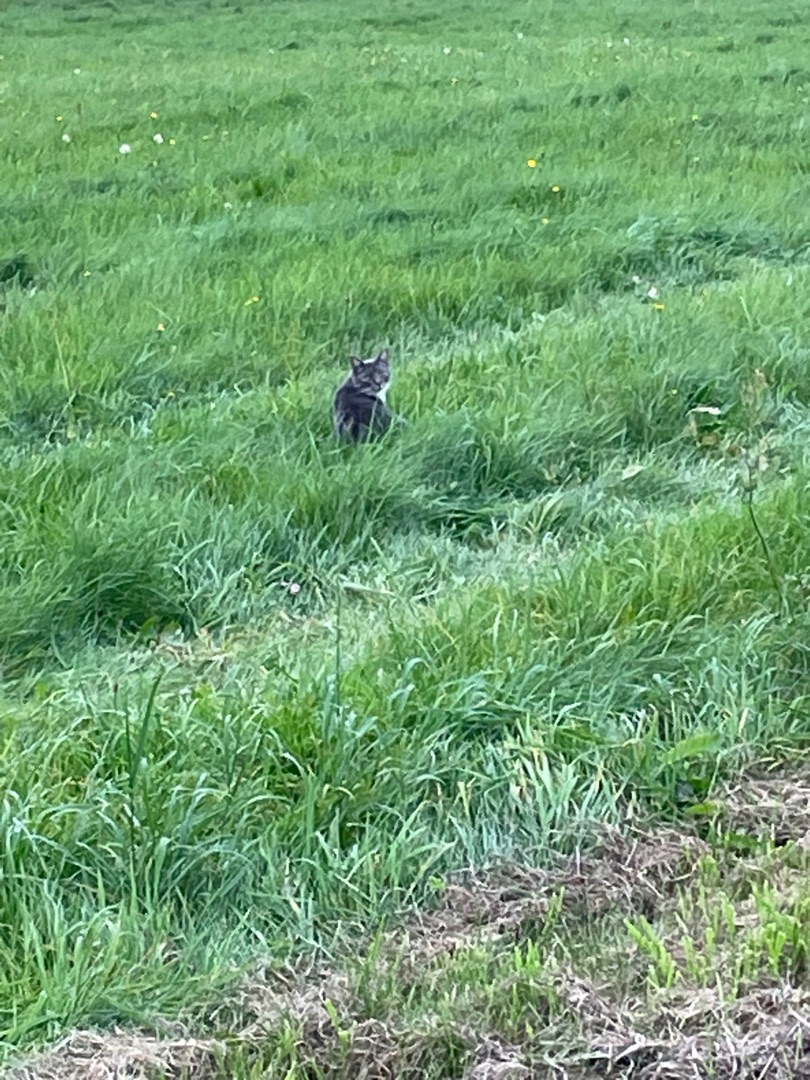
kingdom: Animalia
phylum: Chordata
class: Mammalia
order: Carnivora
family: Felidae
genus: Felis
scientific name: Felis catus
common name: Tamkat
